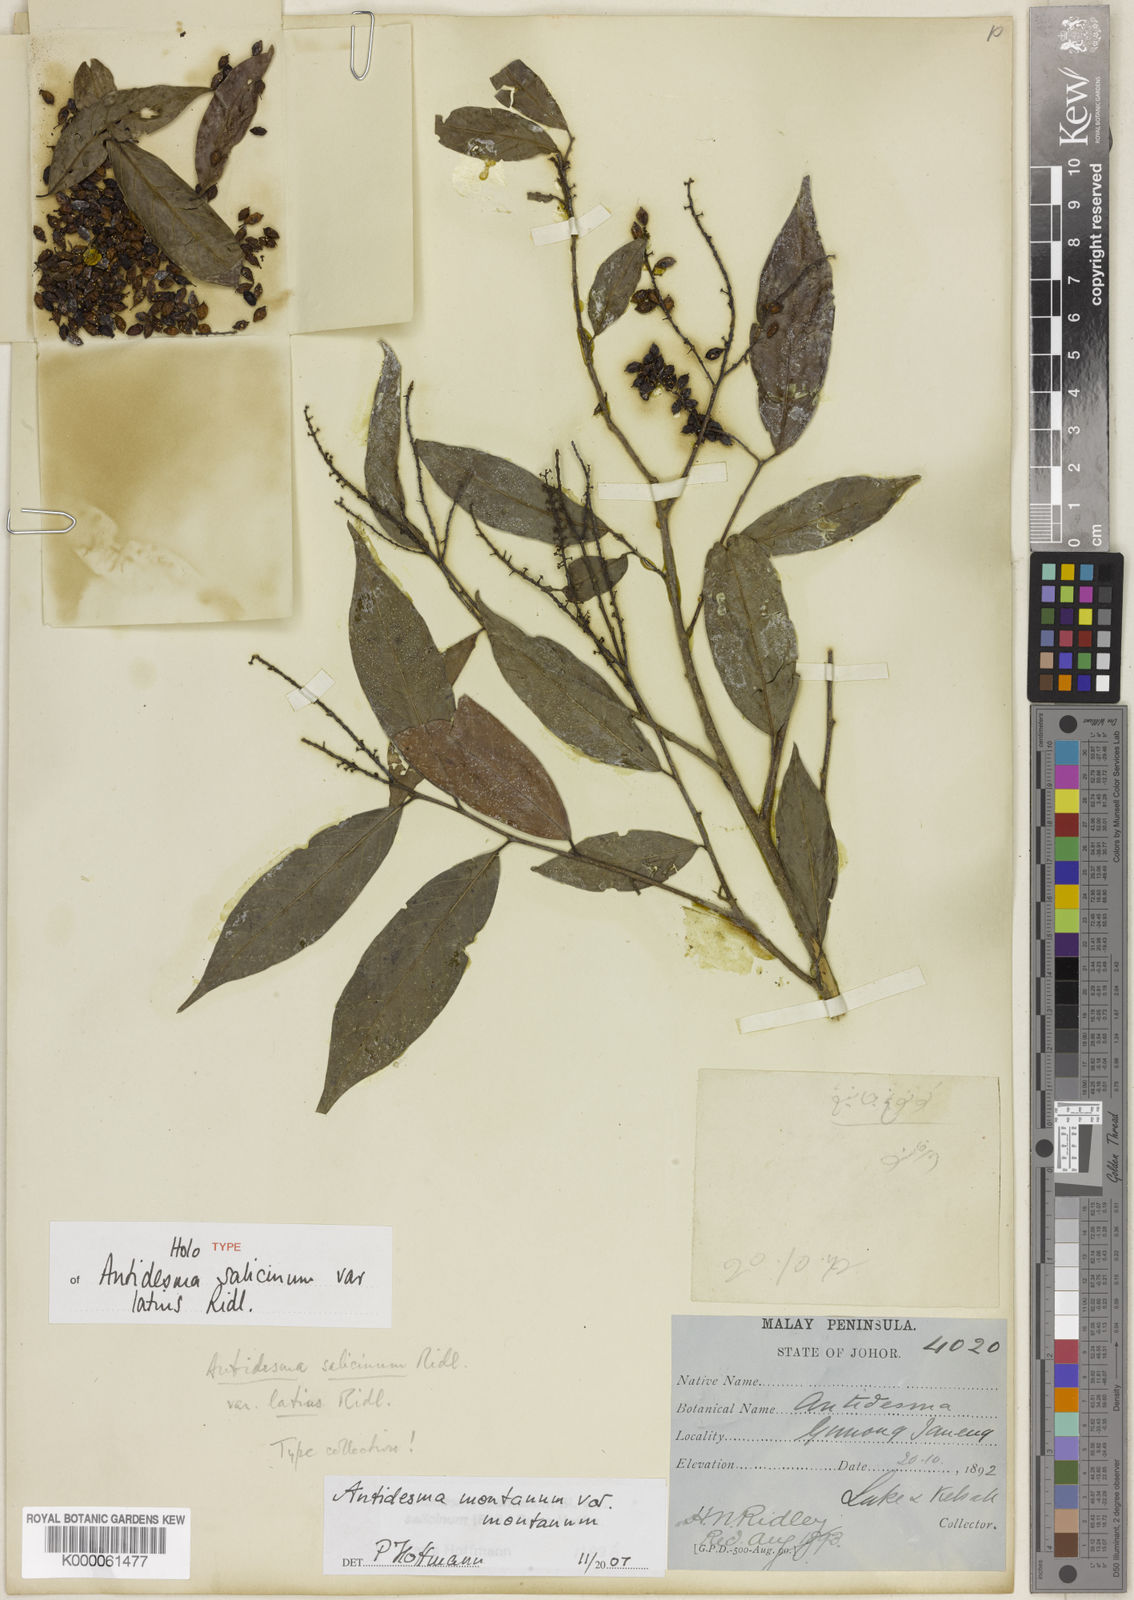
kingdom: Plantae
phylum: Tracheophyta
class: Magnoliopsida
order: Malpighiales
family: Phyllanthaceae
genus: Antidesma
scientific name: Antidesma montanum
